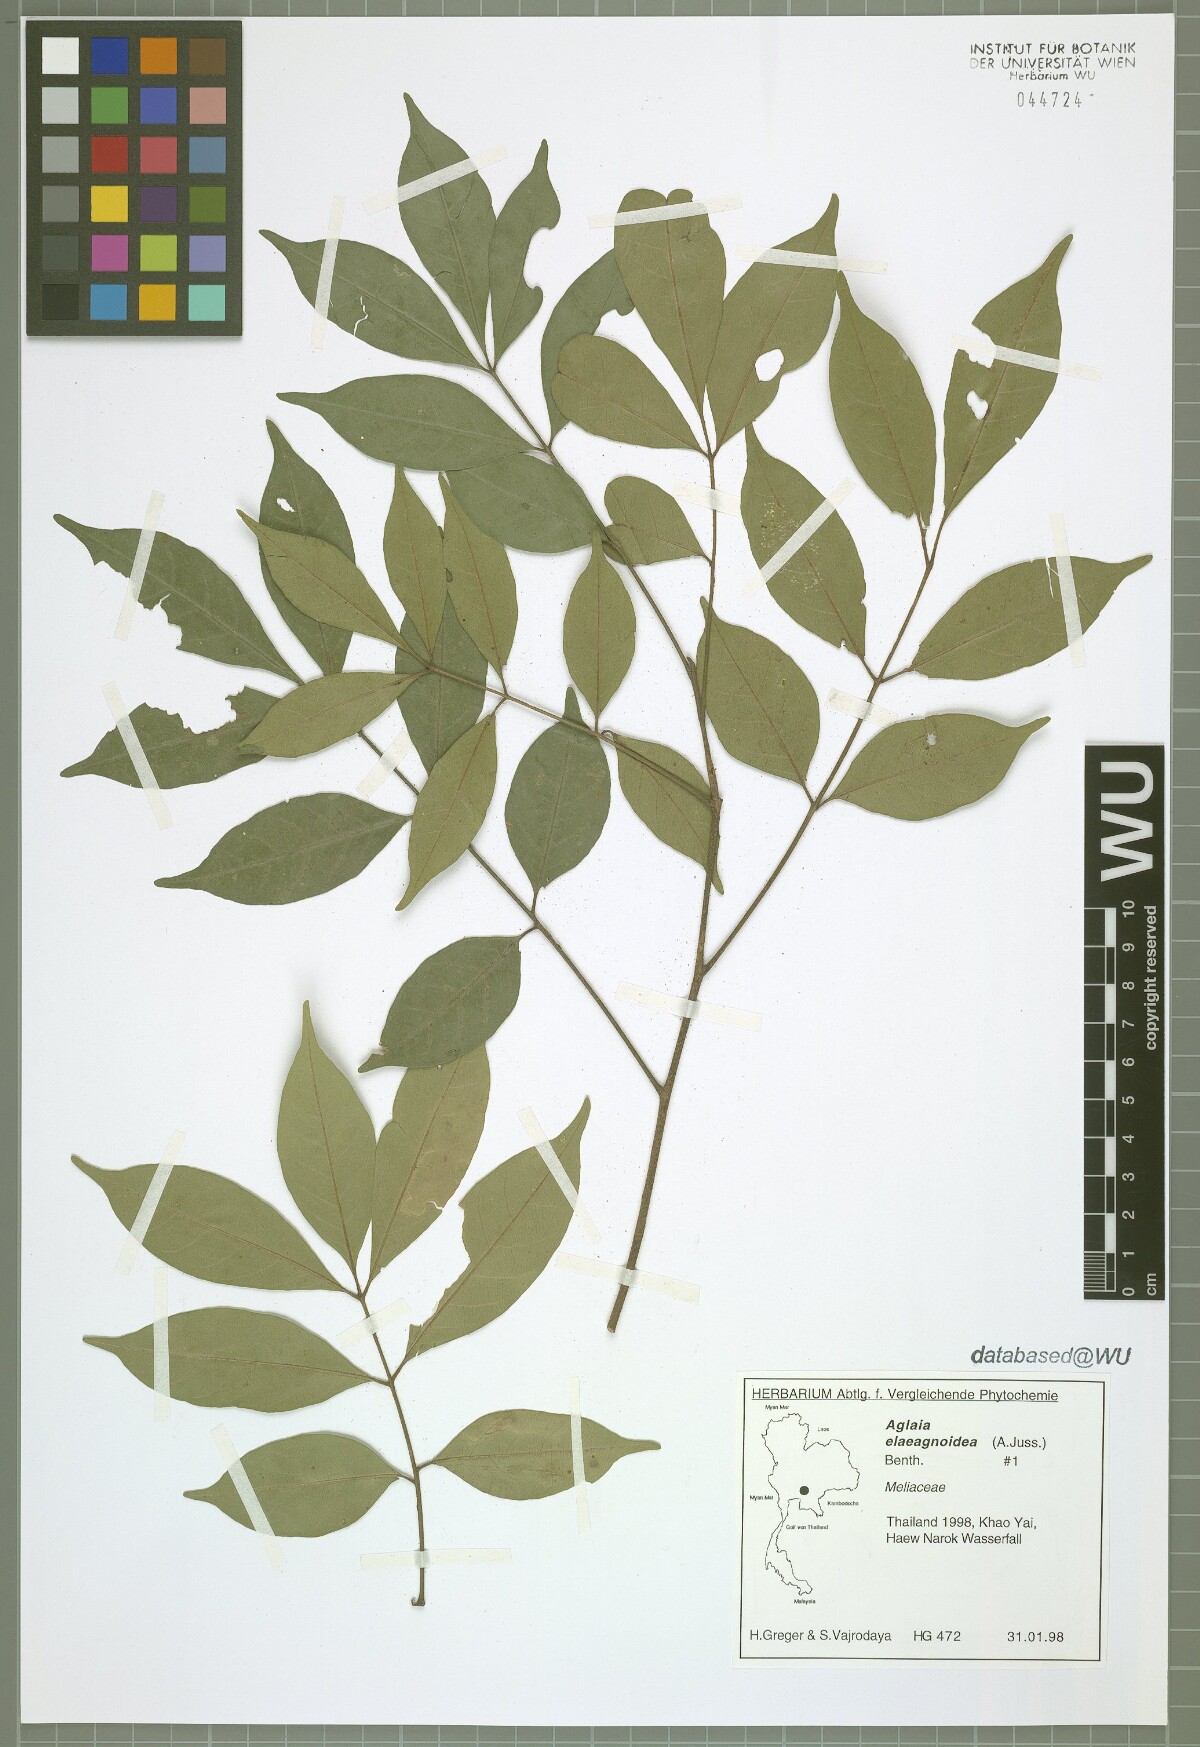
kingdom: Plantae
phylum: Tracheophyta
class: Magnoliopsida
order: Sapindales
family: Meliaceae
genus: Aglaia
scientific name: Aglaia elaeagnoidea
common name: Droopyleaf
